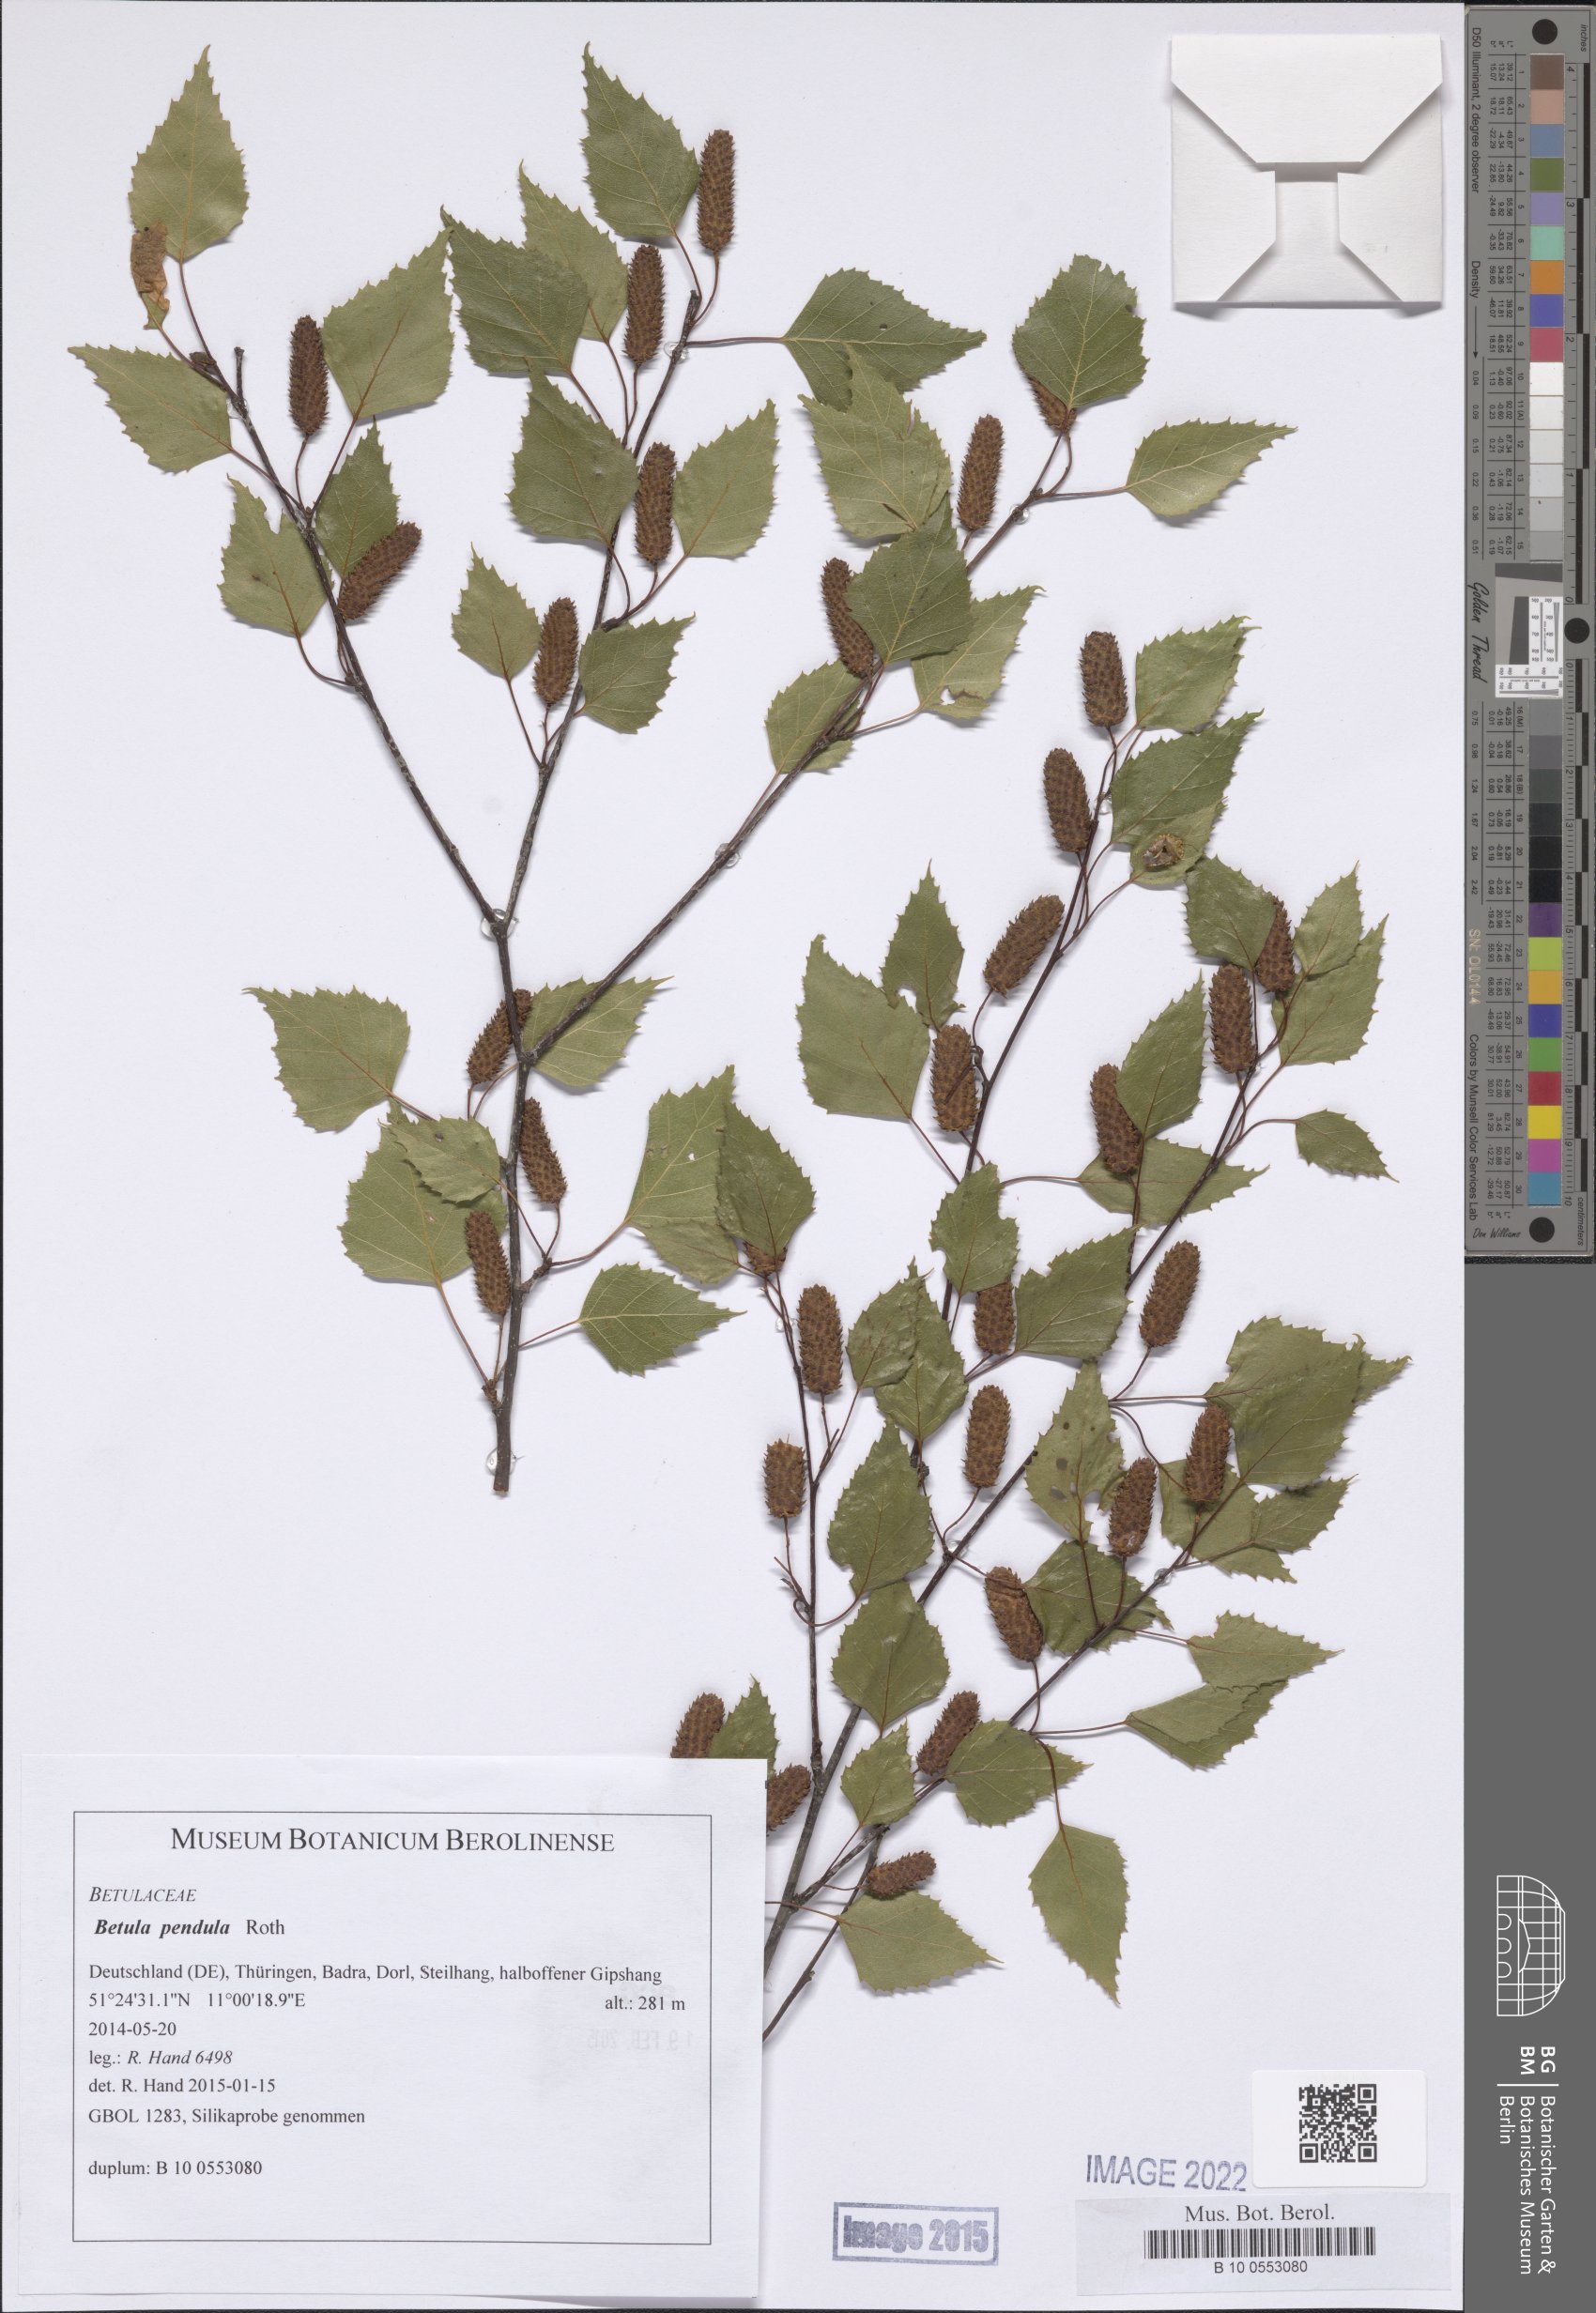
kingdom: Plantae
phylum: Tracheophyta
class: Magnoliopsida
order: Fagales
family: Betulaceae
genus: Betula
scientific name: Betula pendula
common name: Silver birch
